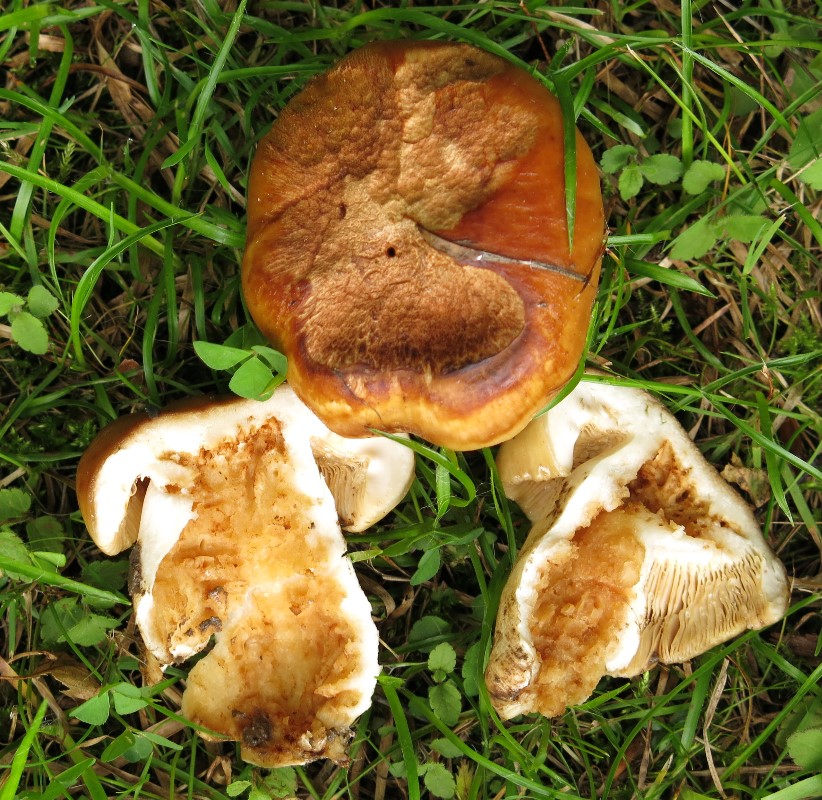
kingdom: Fungi
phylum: Basidiomycota
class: Agaricomycetes
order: Russulales
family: Russulaceae
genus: Russula
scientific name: Russula grata
